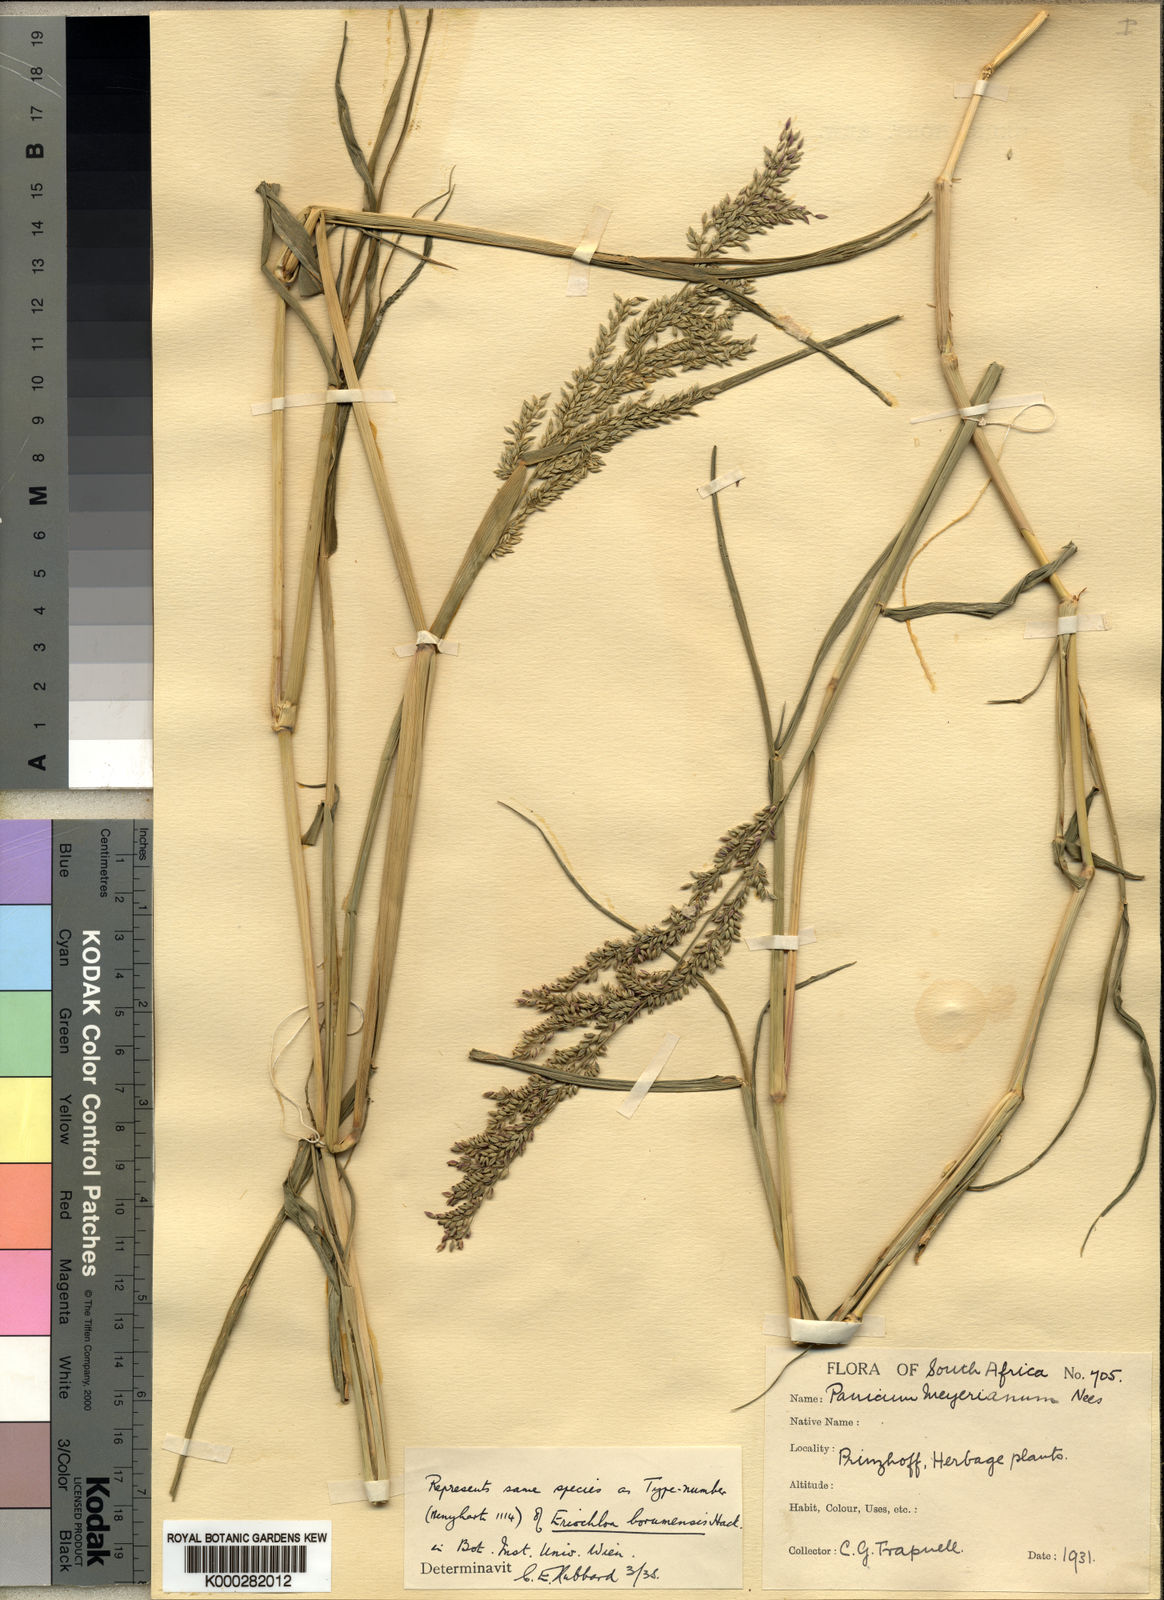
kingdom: Plantae
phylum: Tracheophyta
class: Liliopsida
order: Poales
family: Poaceae
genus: Eriochloa
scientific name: Eriochloa meyeriana
